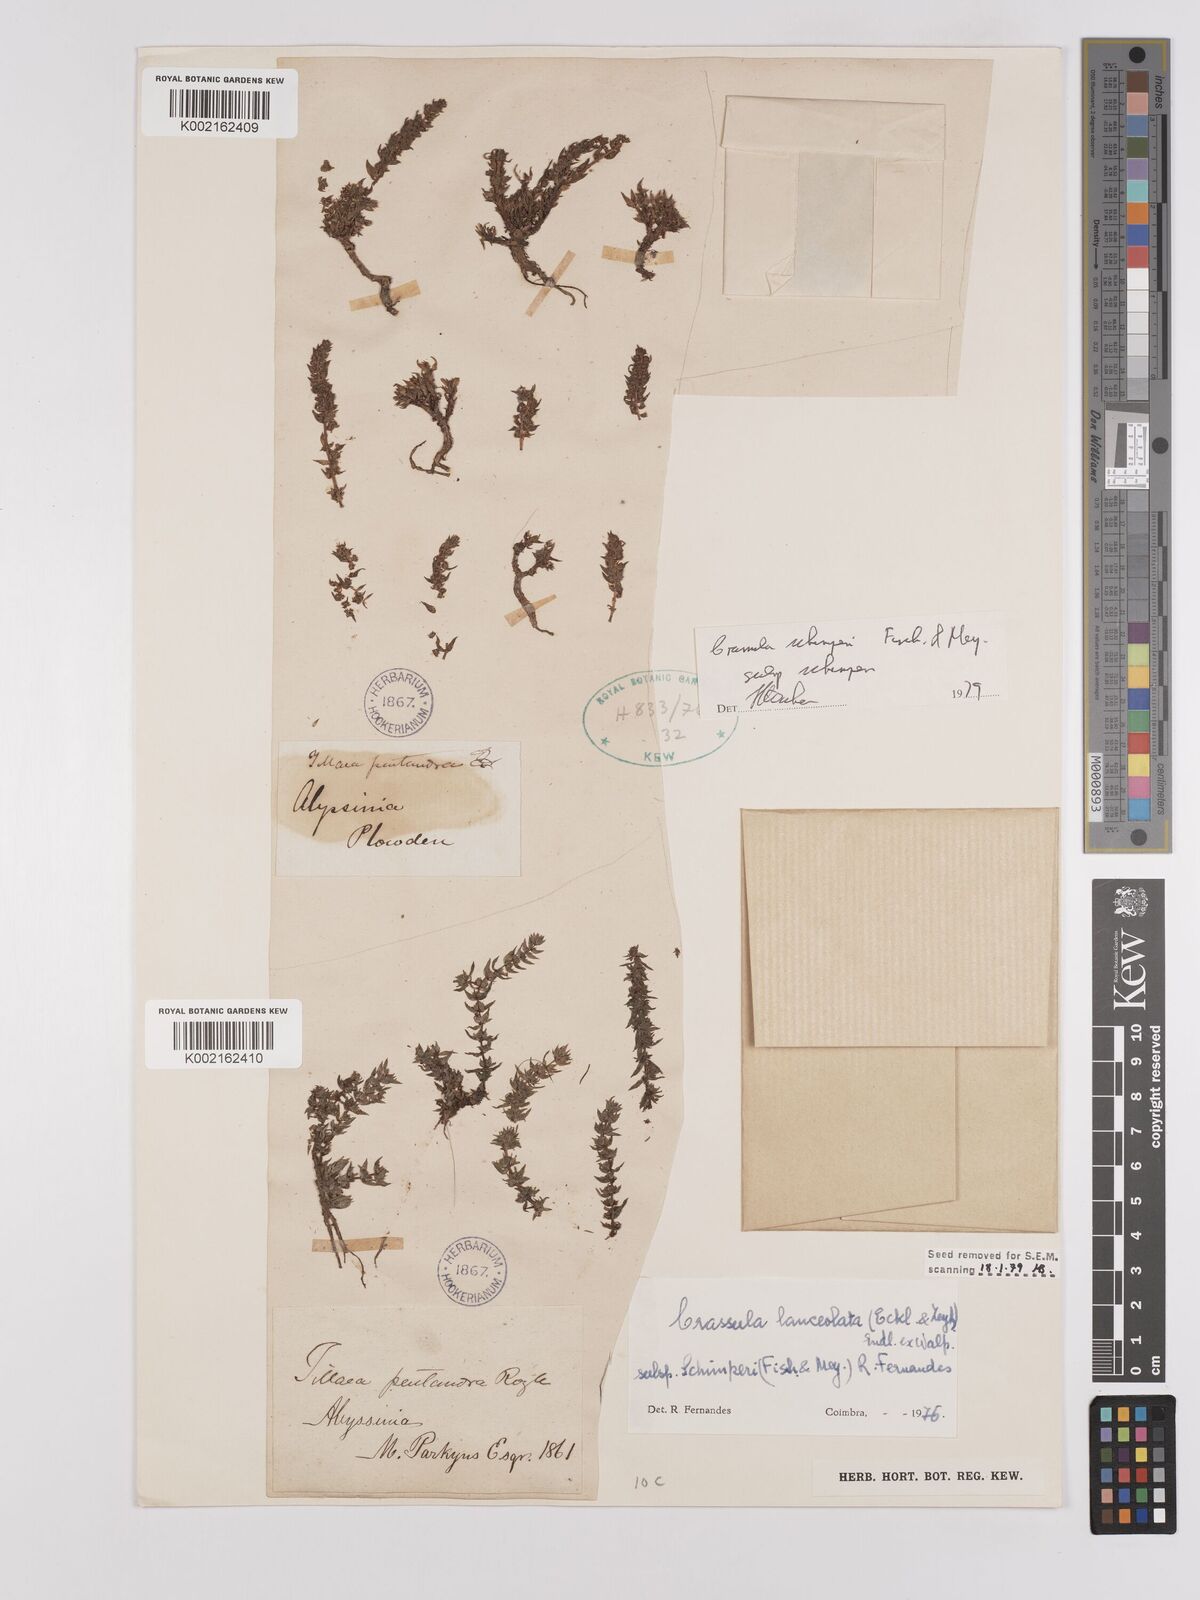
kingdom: Plantae
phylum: Tracheophyta
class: Magnoliopsida
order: Saxifragales
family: Crassulaceae
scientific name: Crassulaceae
